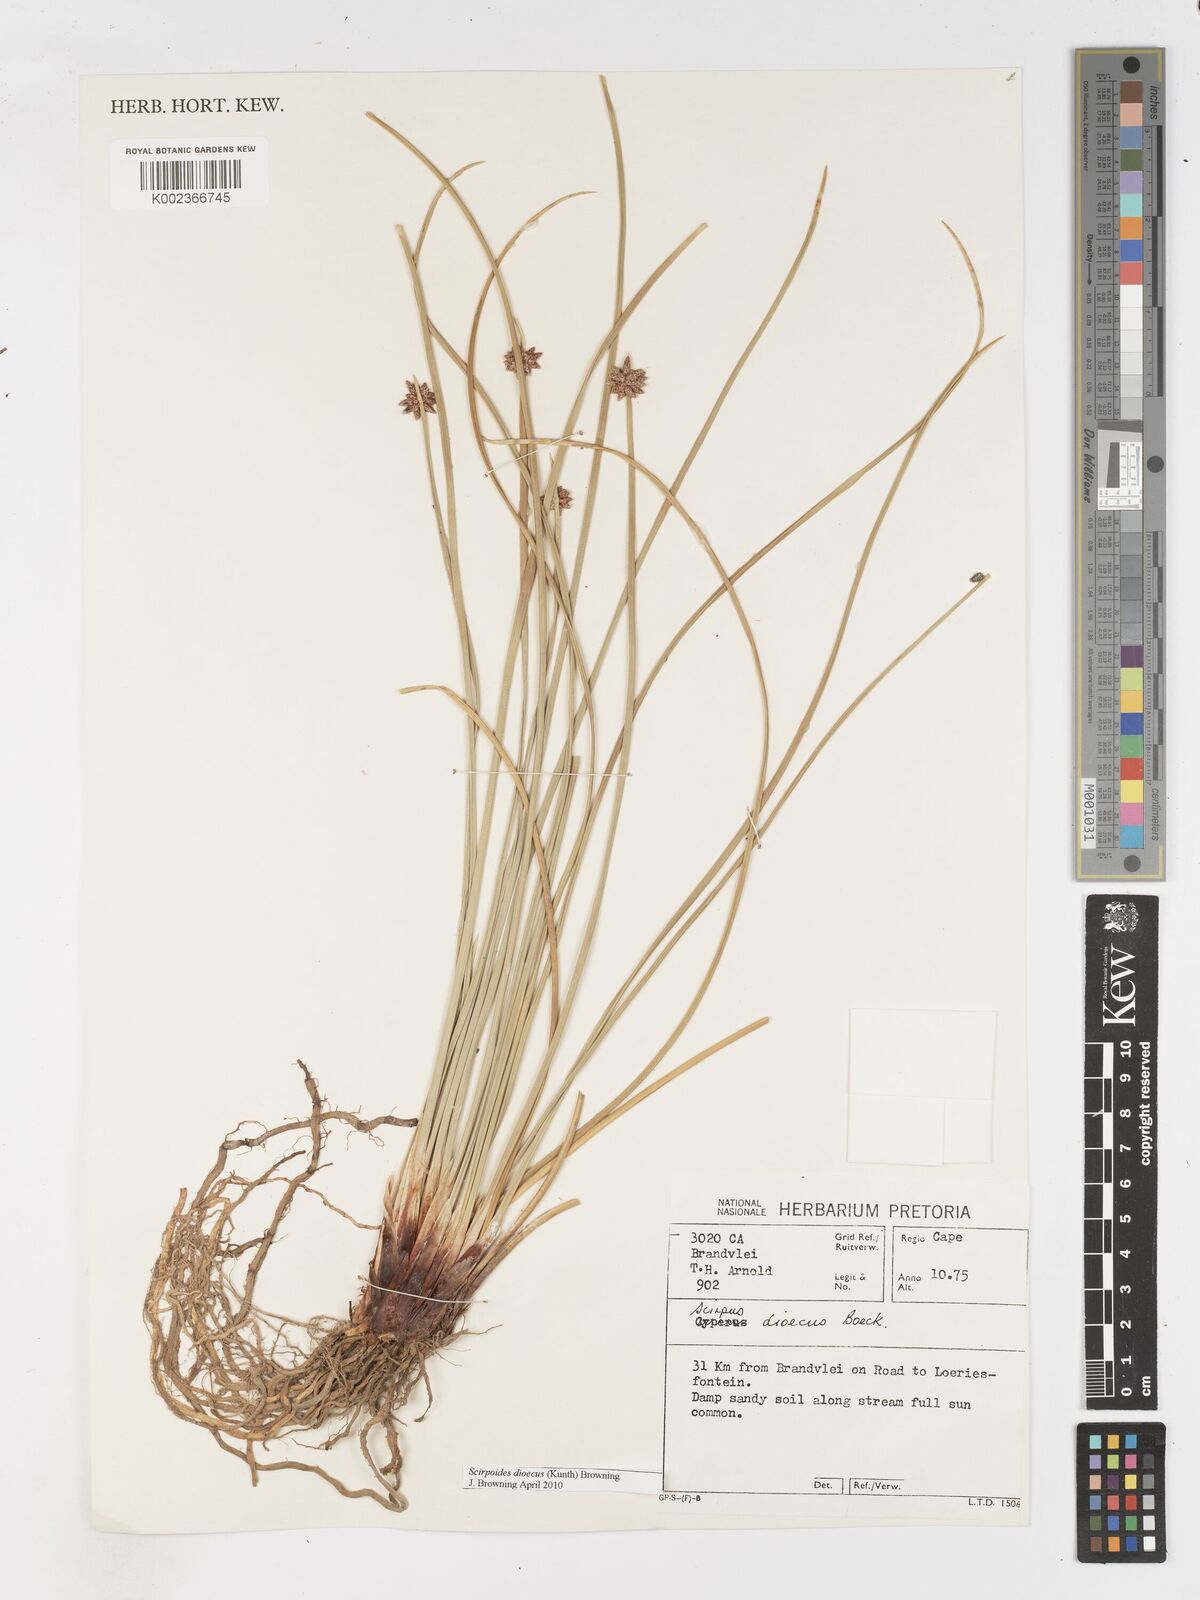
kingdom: Plantae
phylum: Tracheophyta
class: Liliopsida
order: Poales
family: Cyperaceae
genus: Afroscirpoides
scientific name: Afroscirpoides dioeca
